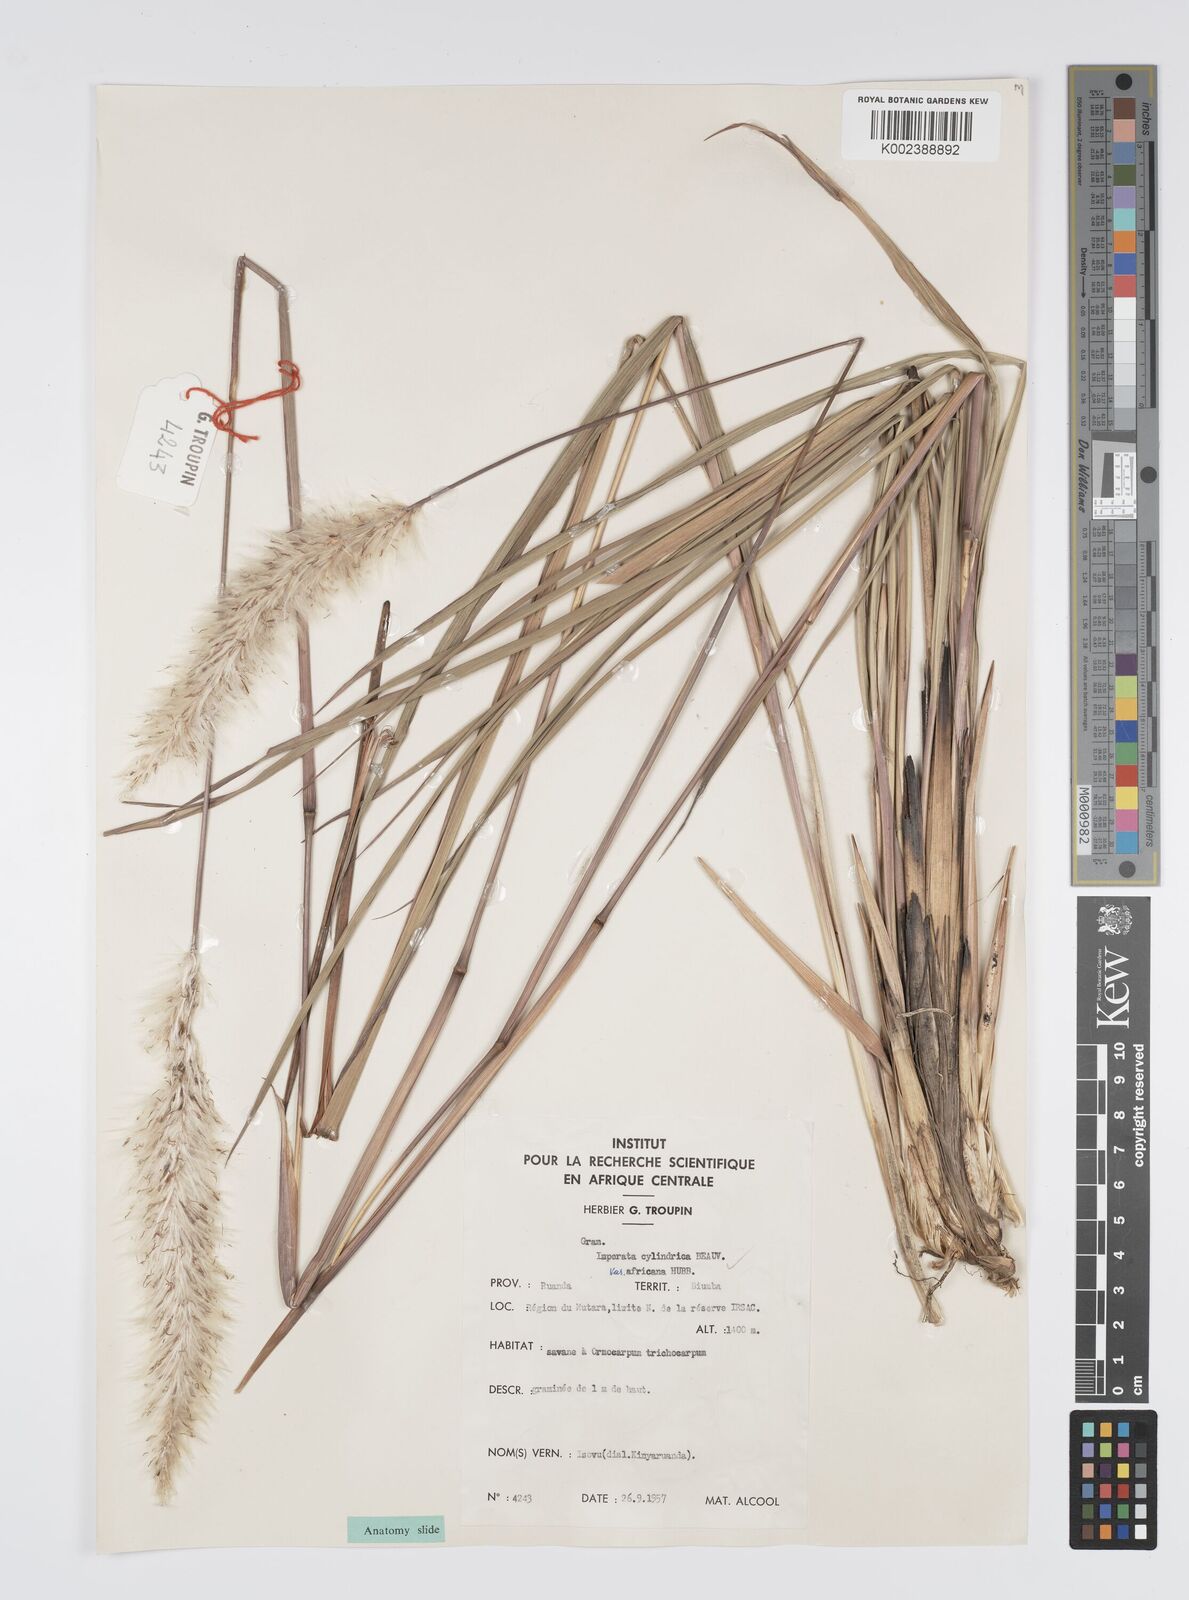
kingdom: Plantae
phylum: Tracheophyta
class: Liliopsida
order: Poales
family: Poaceae
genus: Imperata
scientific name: Imperata cylindrica
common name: Cogongrass
